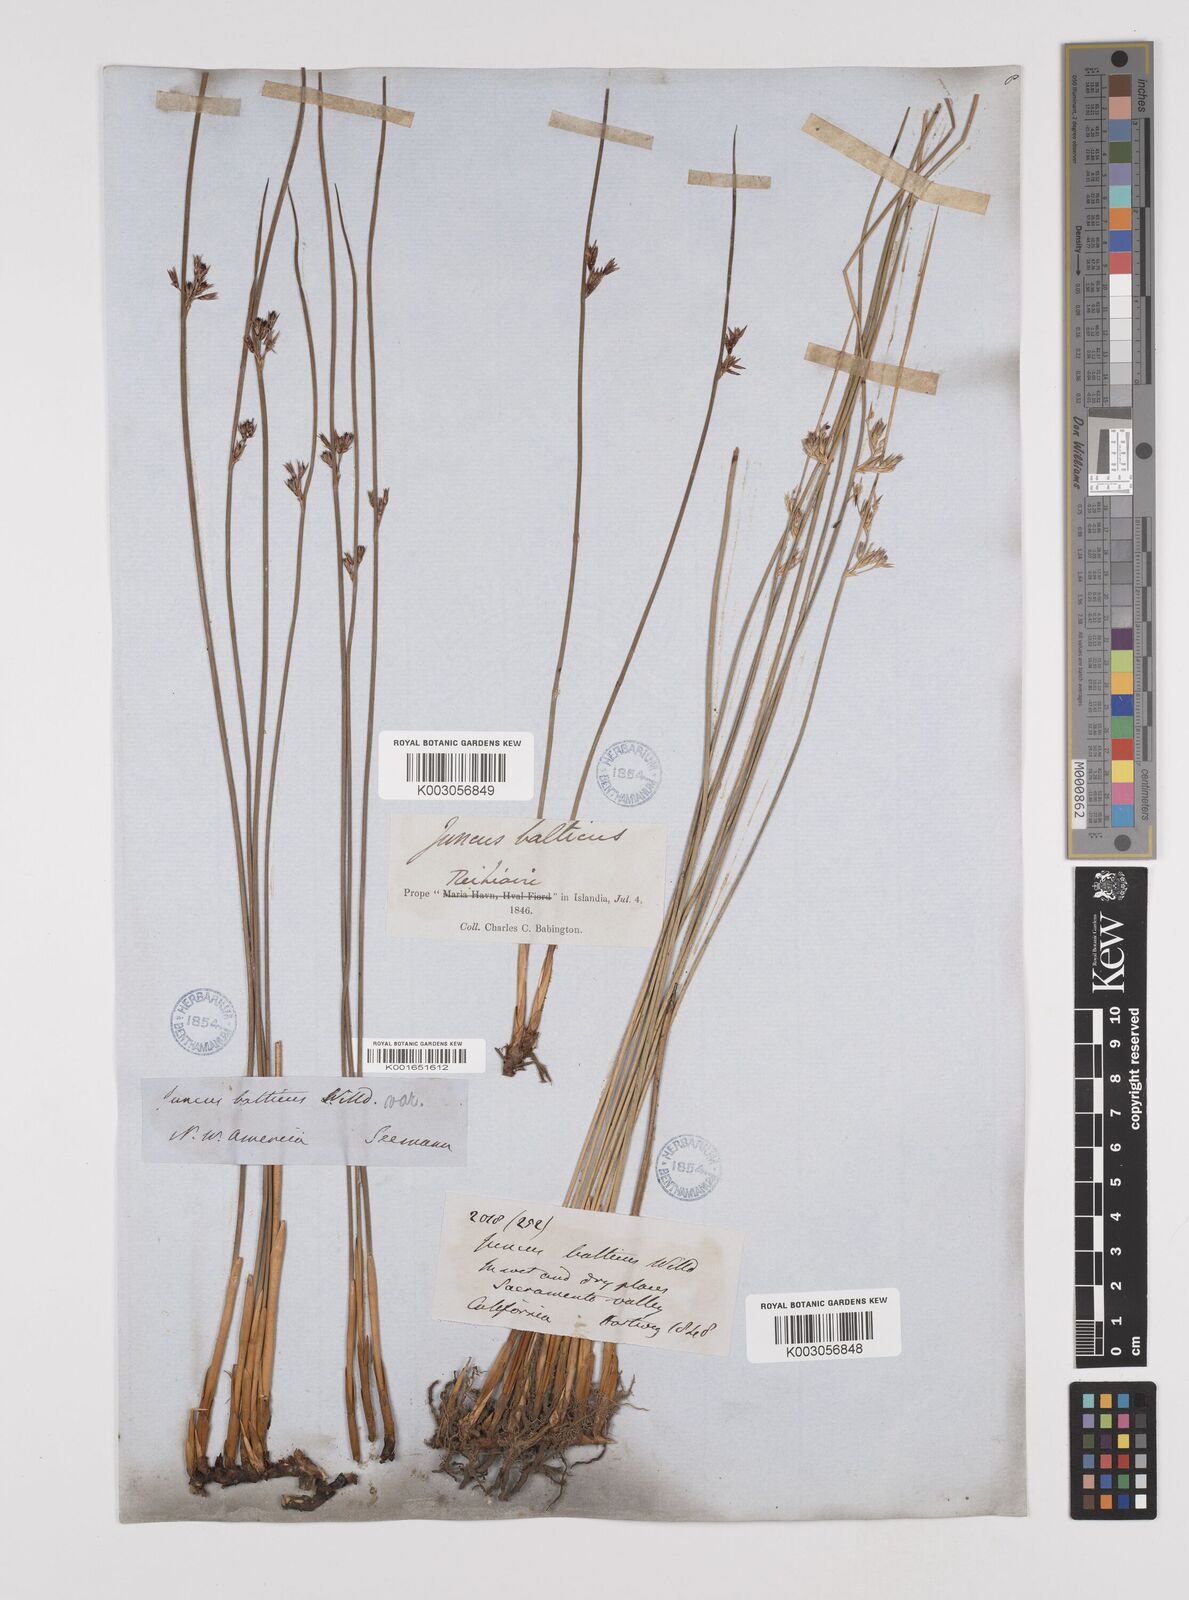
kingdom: Plantae
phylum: Tracheophyta
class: Liliopsida
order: Poales
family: Juncaceae
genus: Juncus
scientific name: Juncus balticus
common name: Baltic rush
